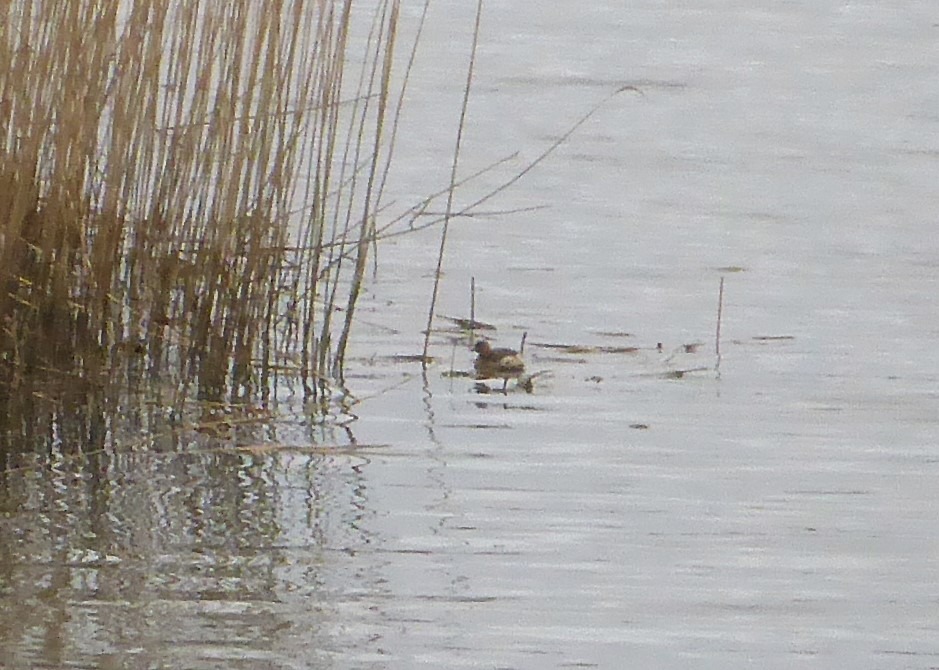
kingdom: Animalia
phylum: Chordata
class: Aves
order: Podicipediformes
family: Podicipedidae
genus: Tachybaptus
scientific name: Tachybaptus ruficollis
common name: Lille lappedykker
